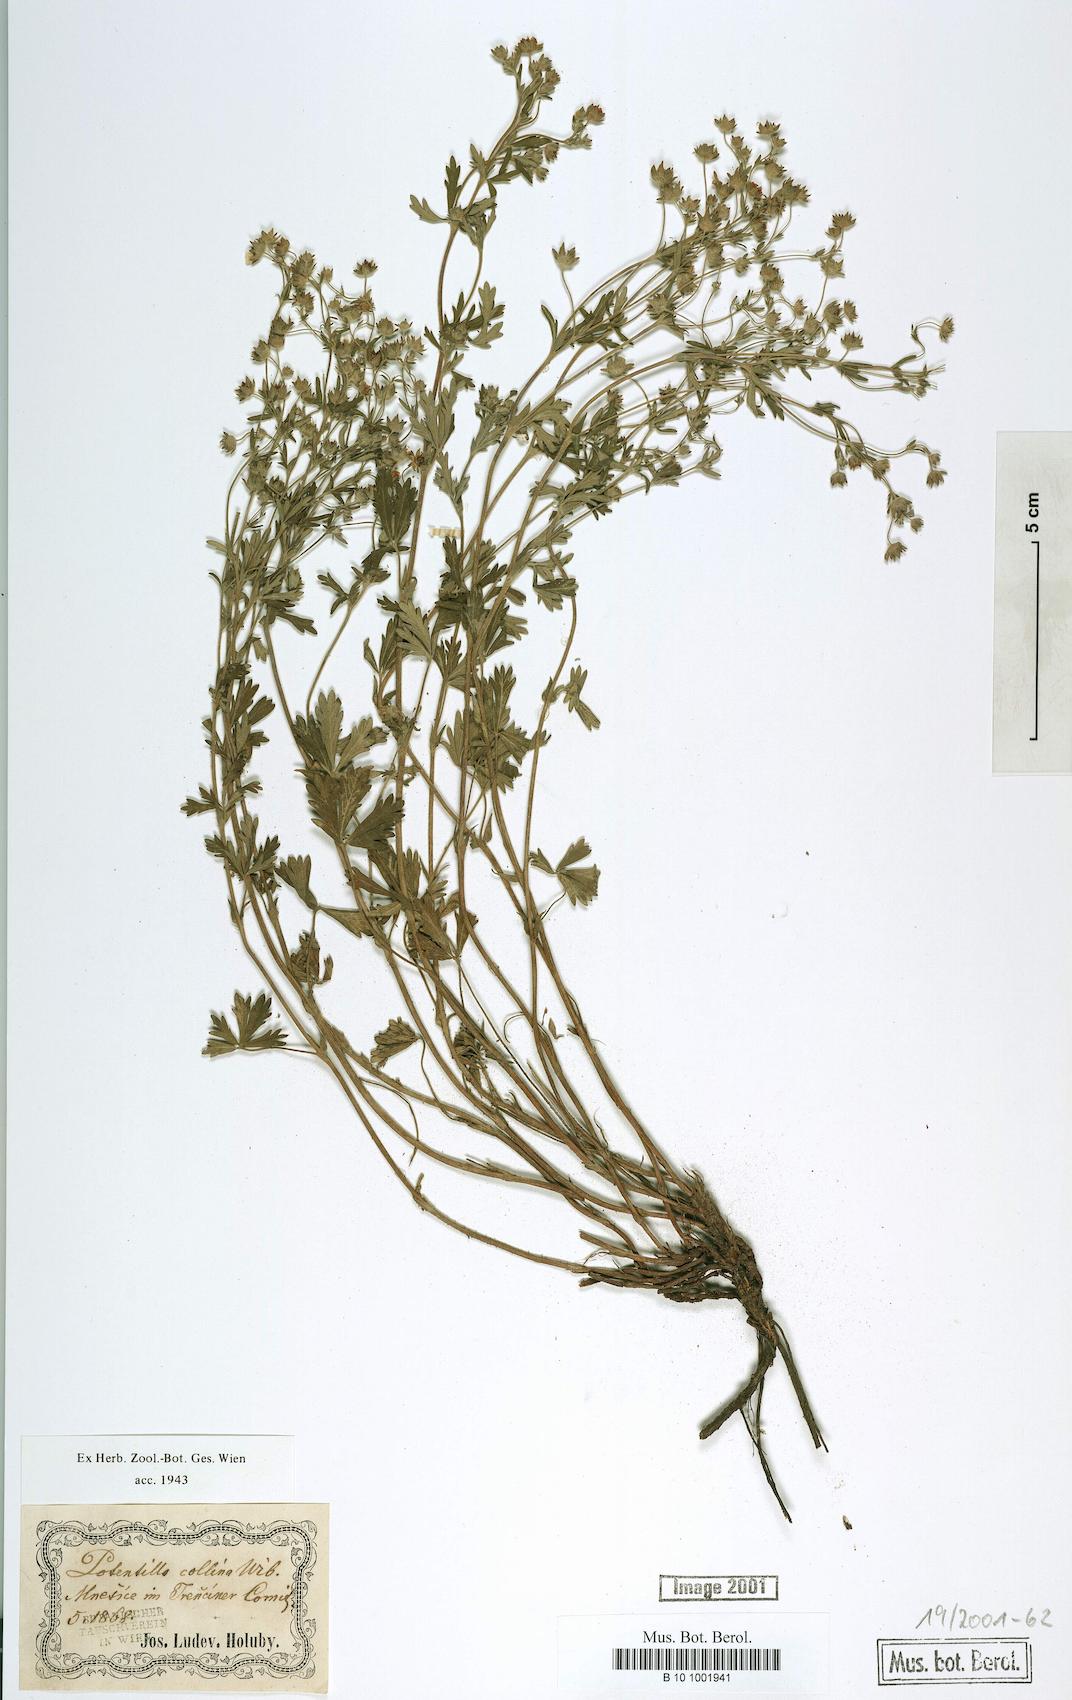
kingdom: Plantae
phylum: Tracheophyta
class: Magnoliopsida
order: Rosales
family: Rosaceae
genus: Potentilla
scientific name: Potentilla collina
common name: Palmleaf cinquefoil
